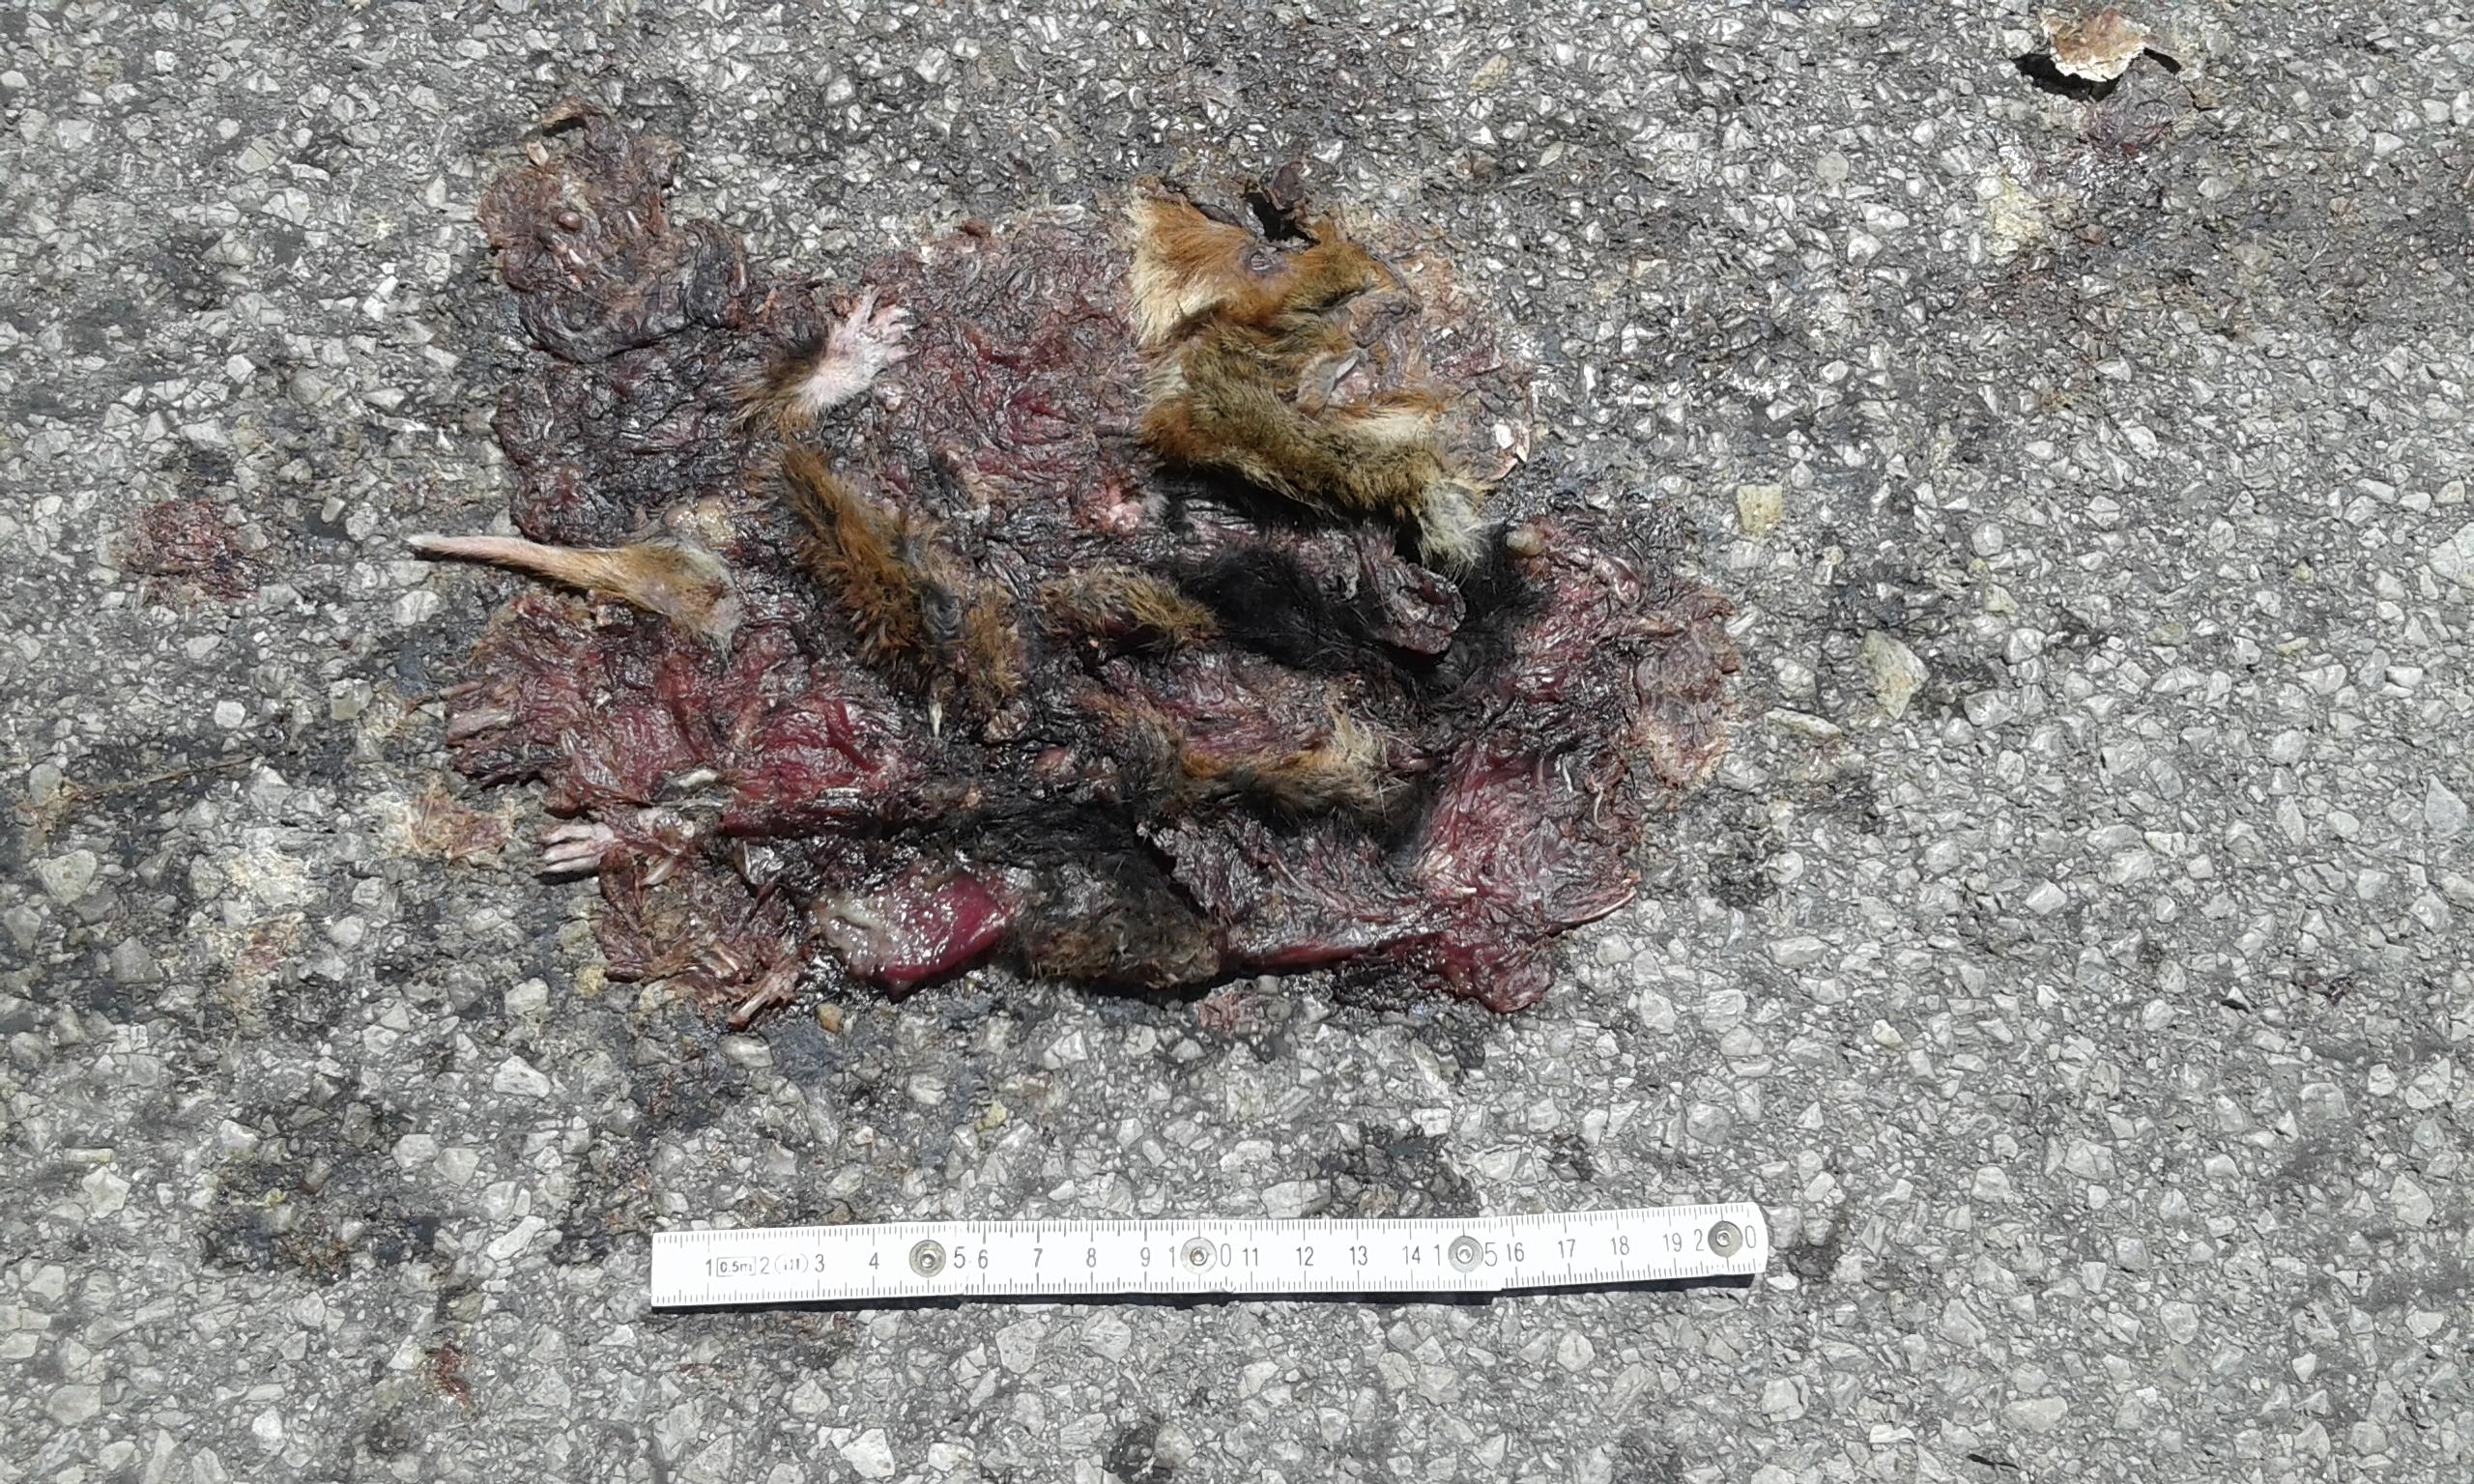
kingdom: Animalia
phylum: Chordata
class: Mammalia
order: Rodentia
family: Cricetidae
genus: Cricetus
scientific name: Cricetus cricetus
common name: Common hamster
